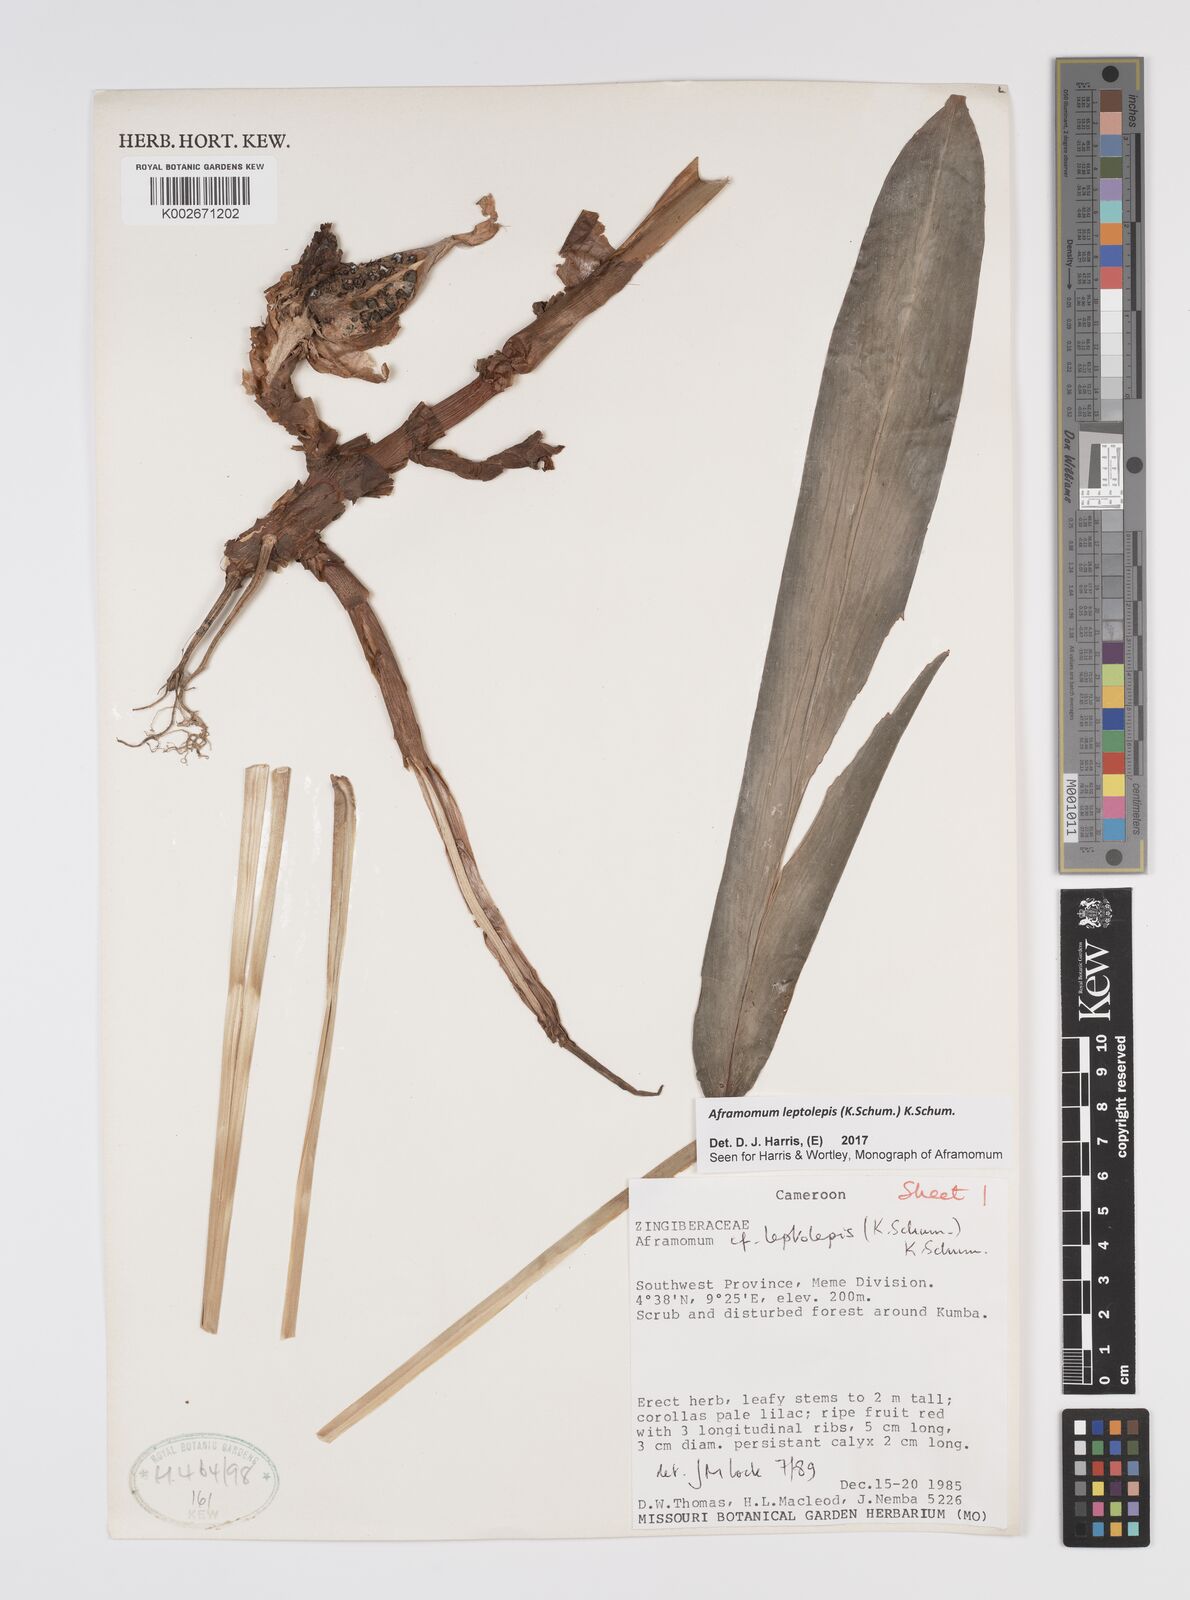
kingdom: Plantae
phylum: Tracheophyta
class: Liliopsida
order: Zingiberales
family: Zingiberaceae
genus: Aframomum
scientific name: Aframomum leptolepis
